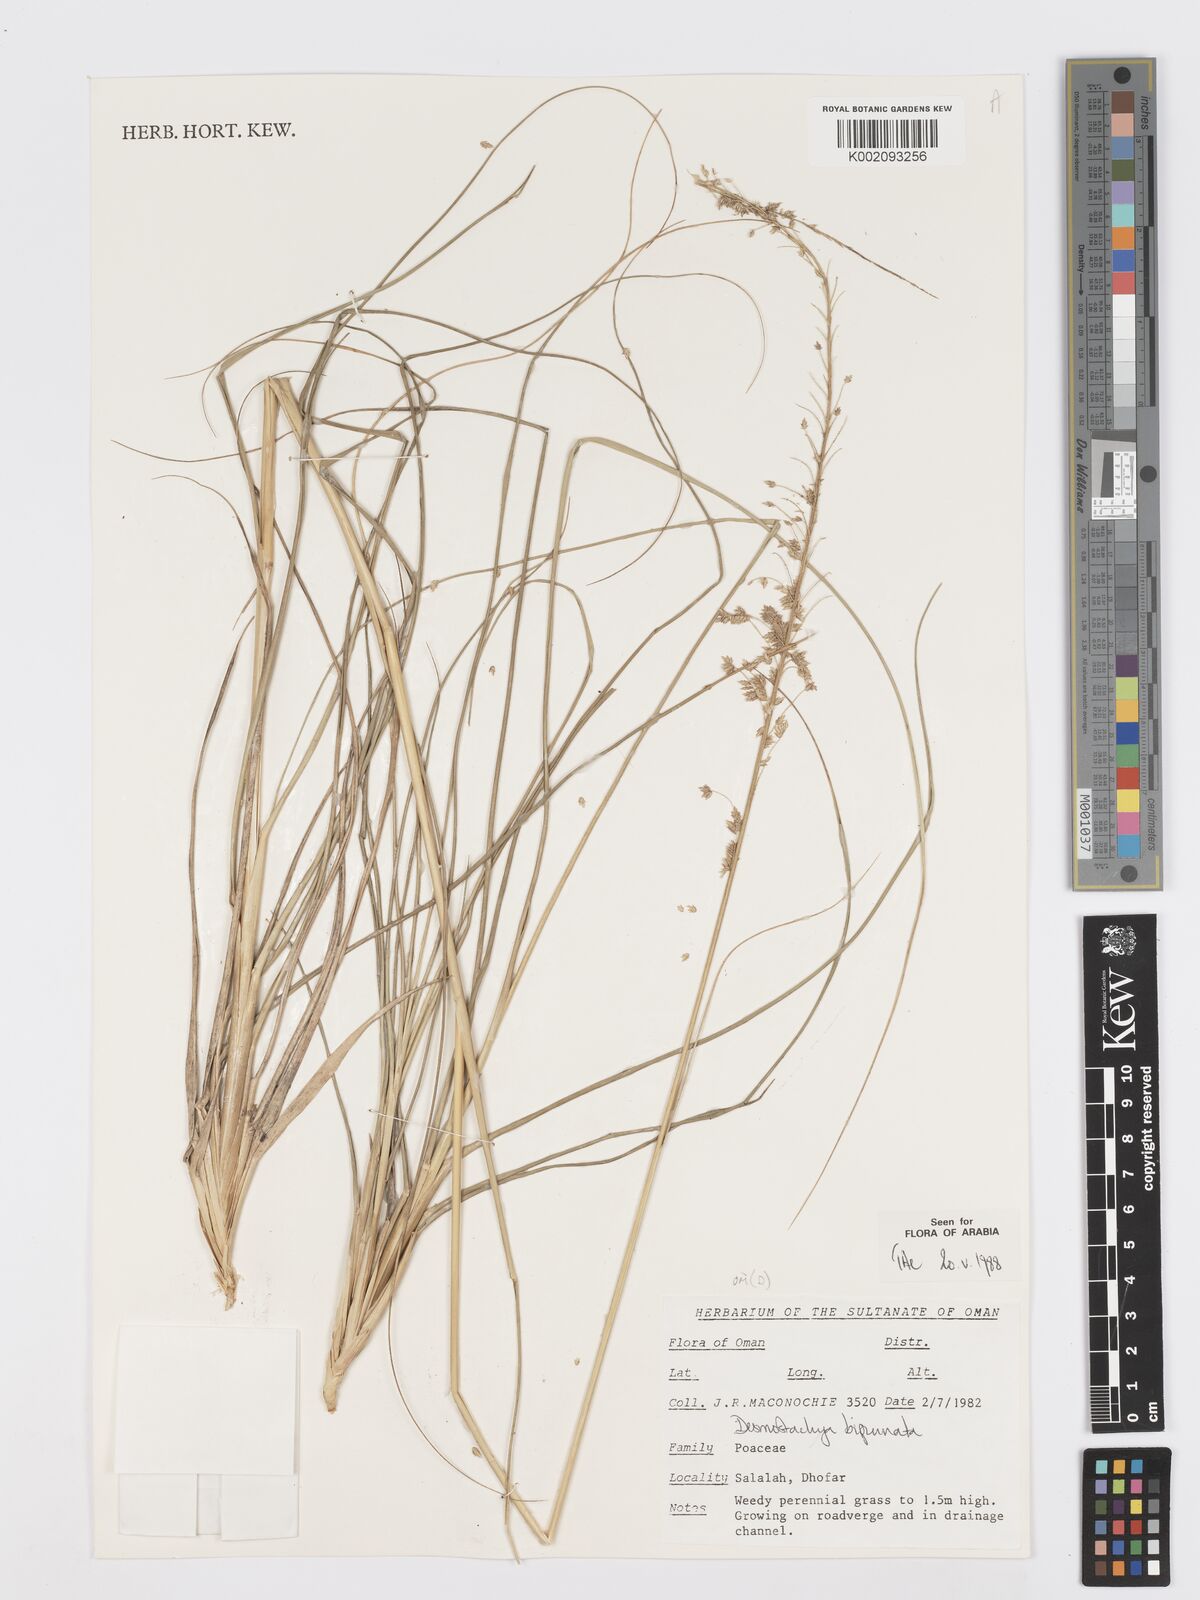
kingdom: Plantae
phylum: Tracheophyta
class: Liliopsida
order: Poales
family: Poaceae
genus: Desmostachya
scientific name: Desmostachya bipinnata
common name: Crowfoot grass
